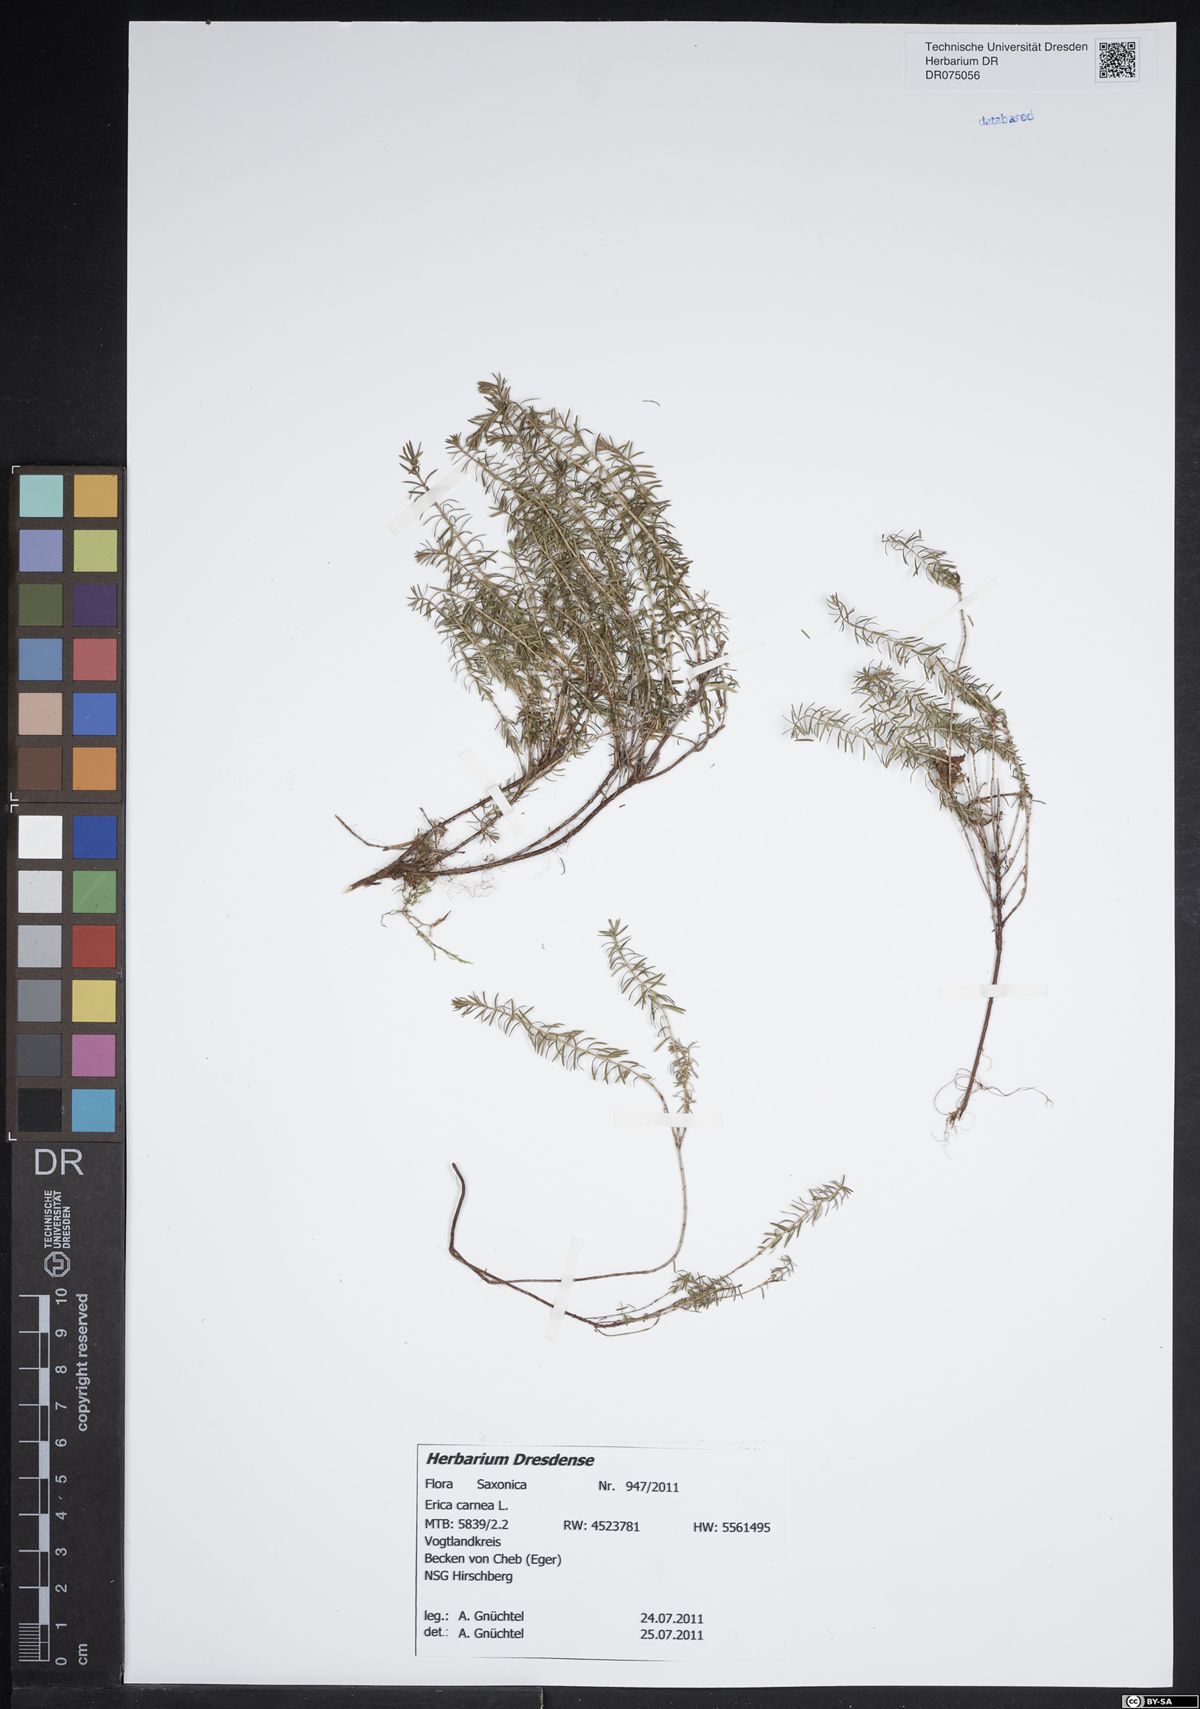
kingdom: Plantae
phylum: Tracheophyta
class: Magnoliopsida
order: Ericales
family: Ericaceae
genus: Erica
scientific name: Erica carnea
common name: Winter heath
